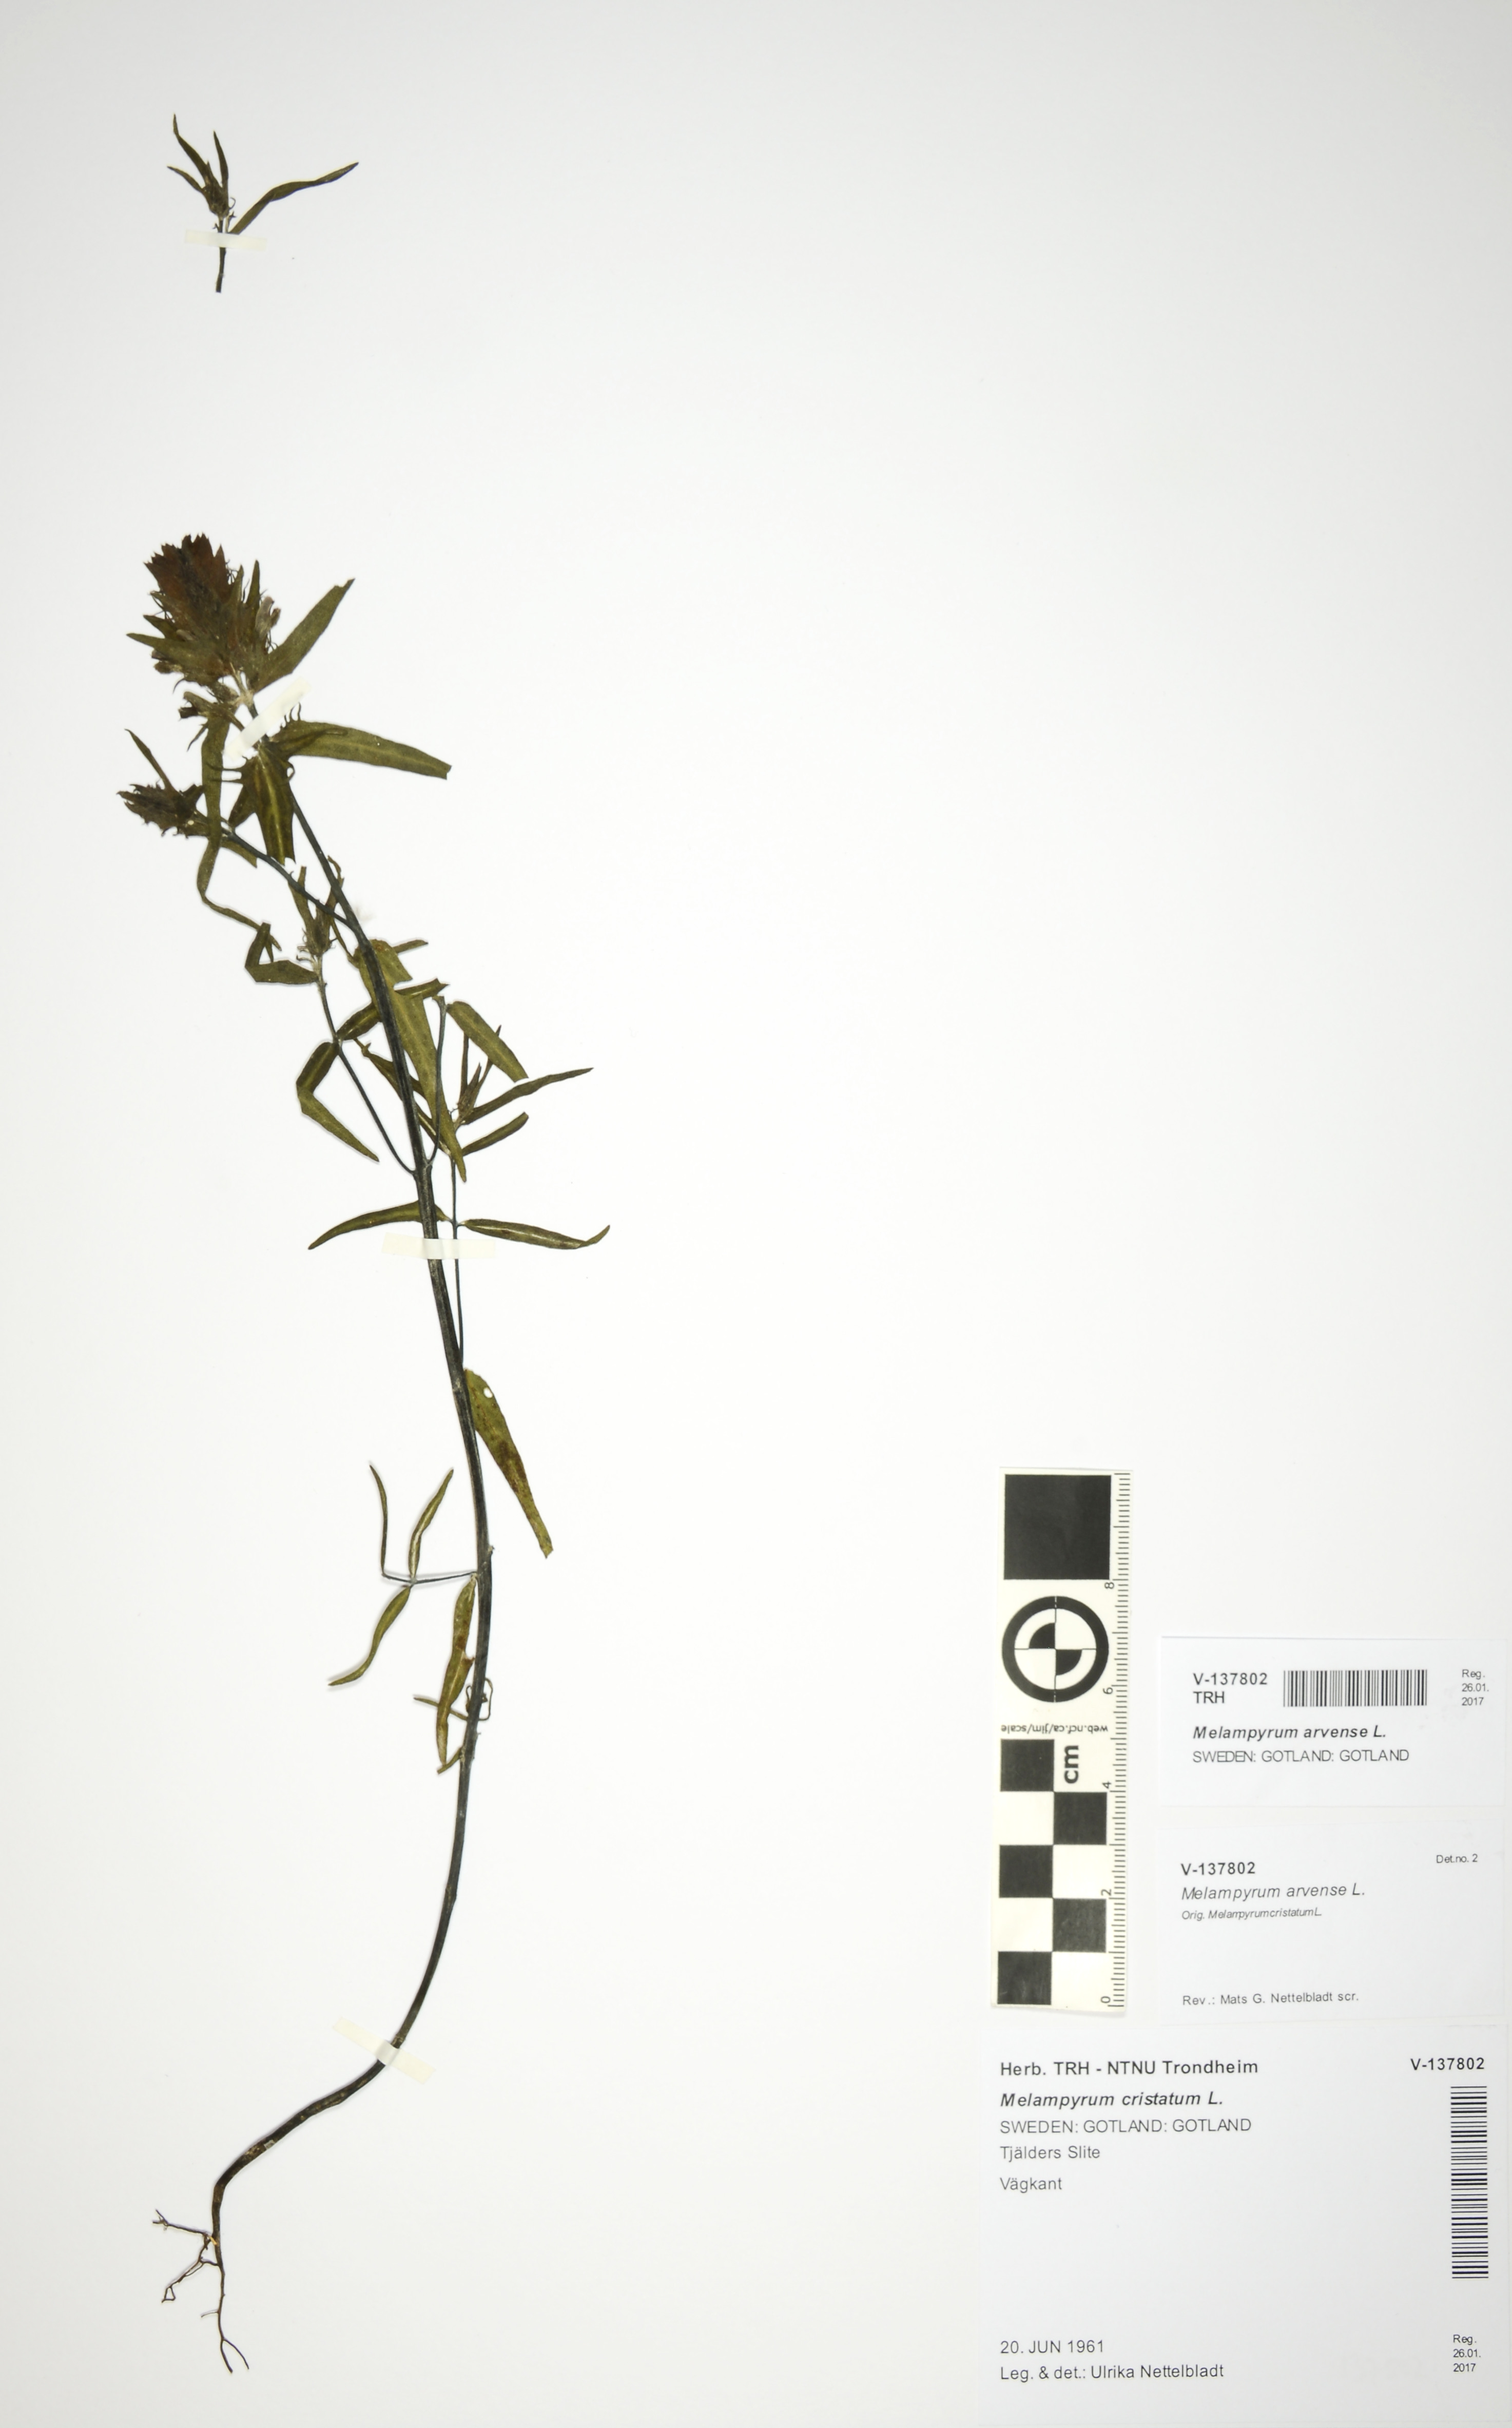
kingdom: Plantae
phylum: Tracheophyta
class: Magnoliopsida
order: Lamiales
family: Orobanchaceae
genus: Melampyrum
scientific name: Melampyrum arvense
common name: Field cow-wheat
